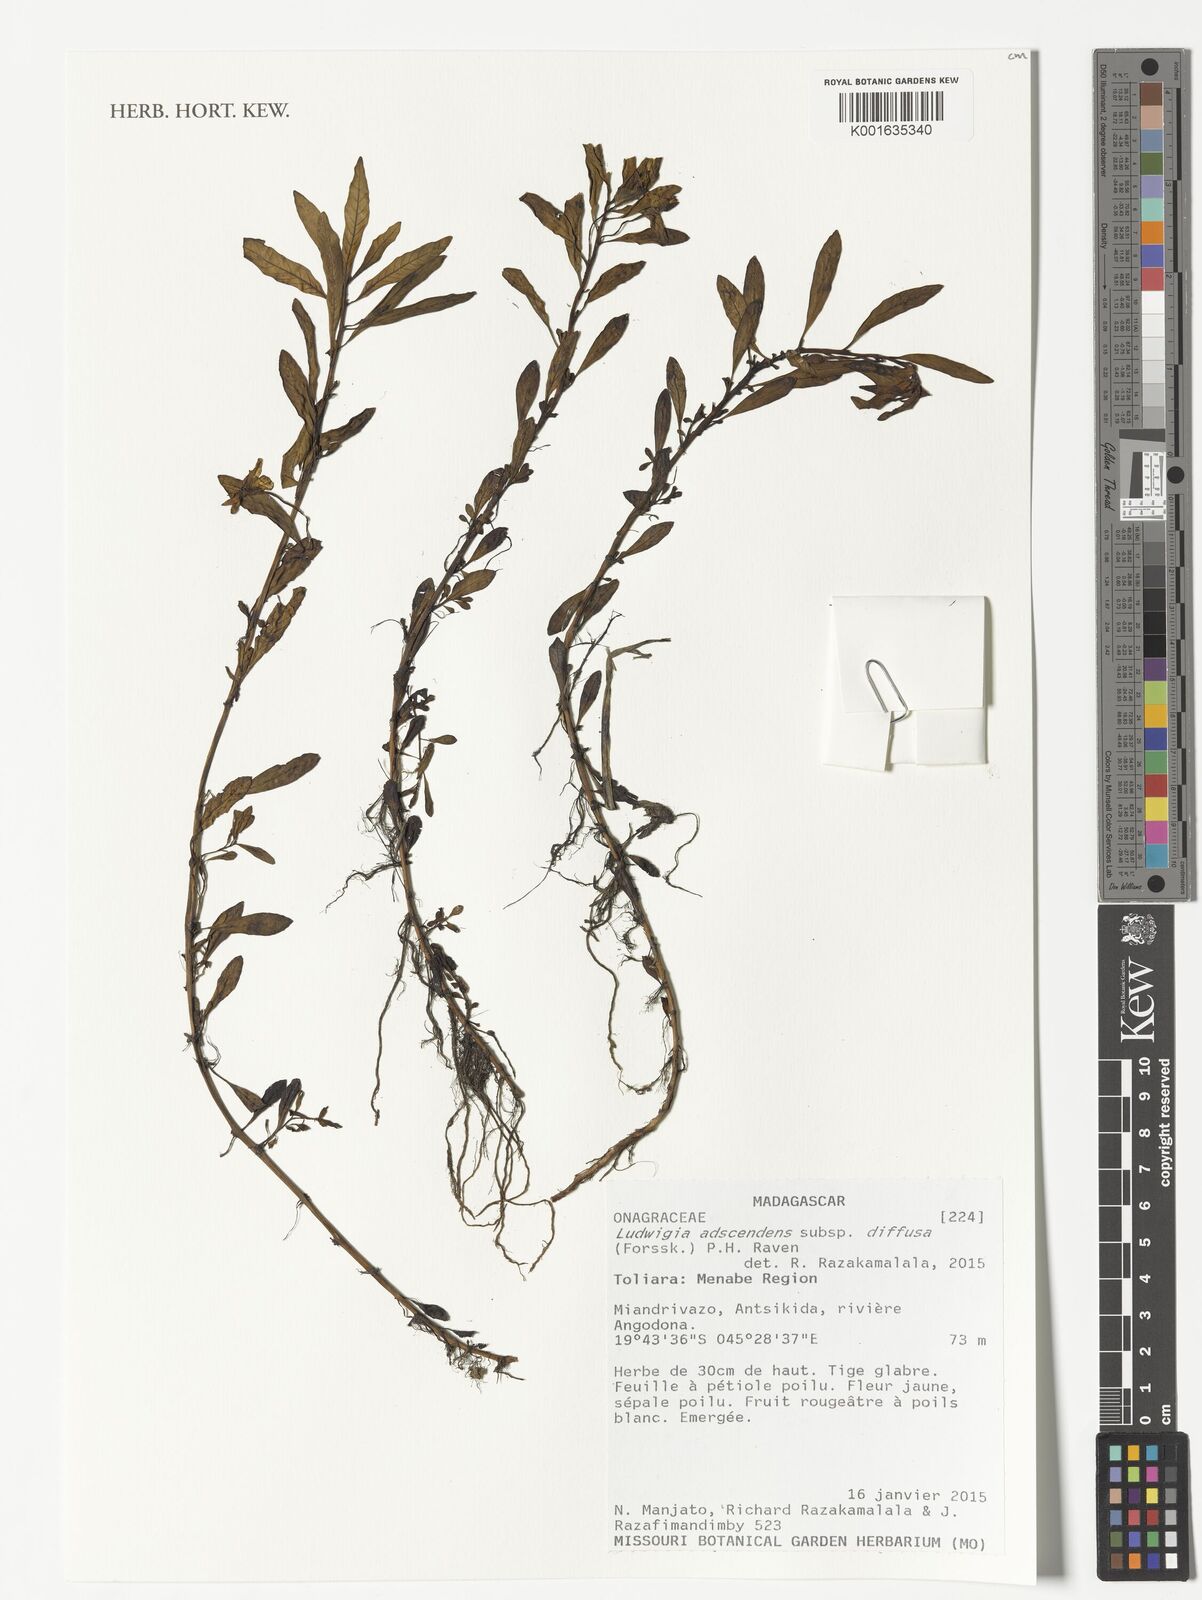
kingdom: Plantae
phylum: Tracheophyta
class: Magnoliopsida
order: Myrtales
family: Onagraceae
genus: Ludwigia
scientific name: Ludwigia adscendens
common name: Creeping water primrose
